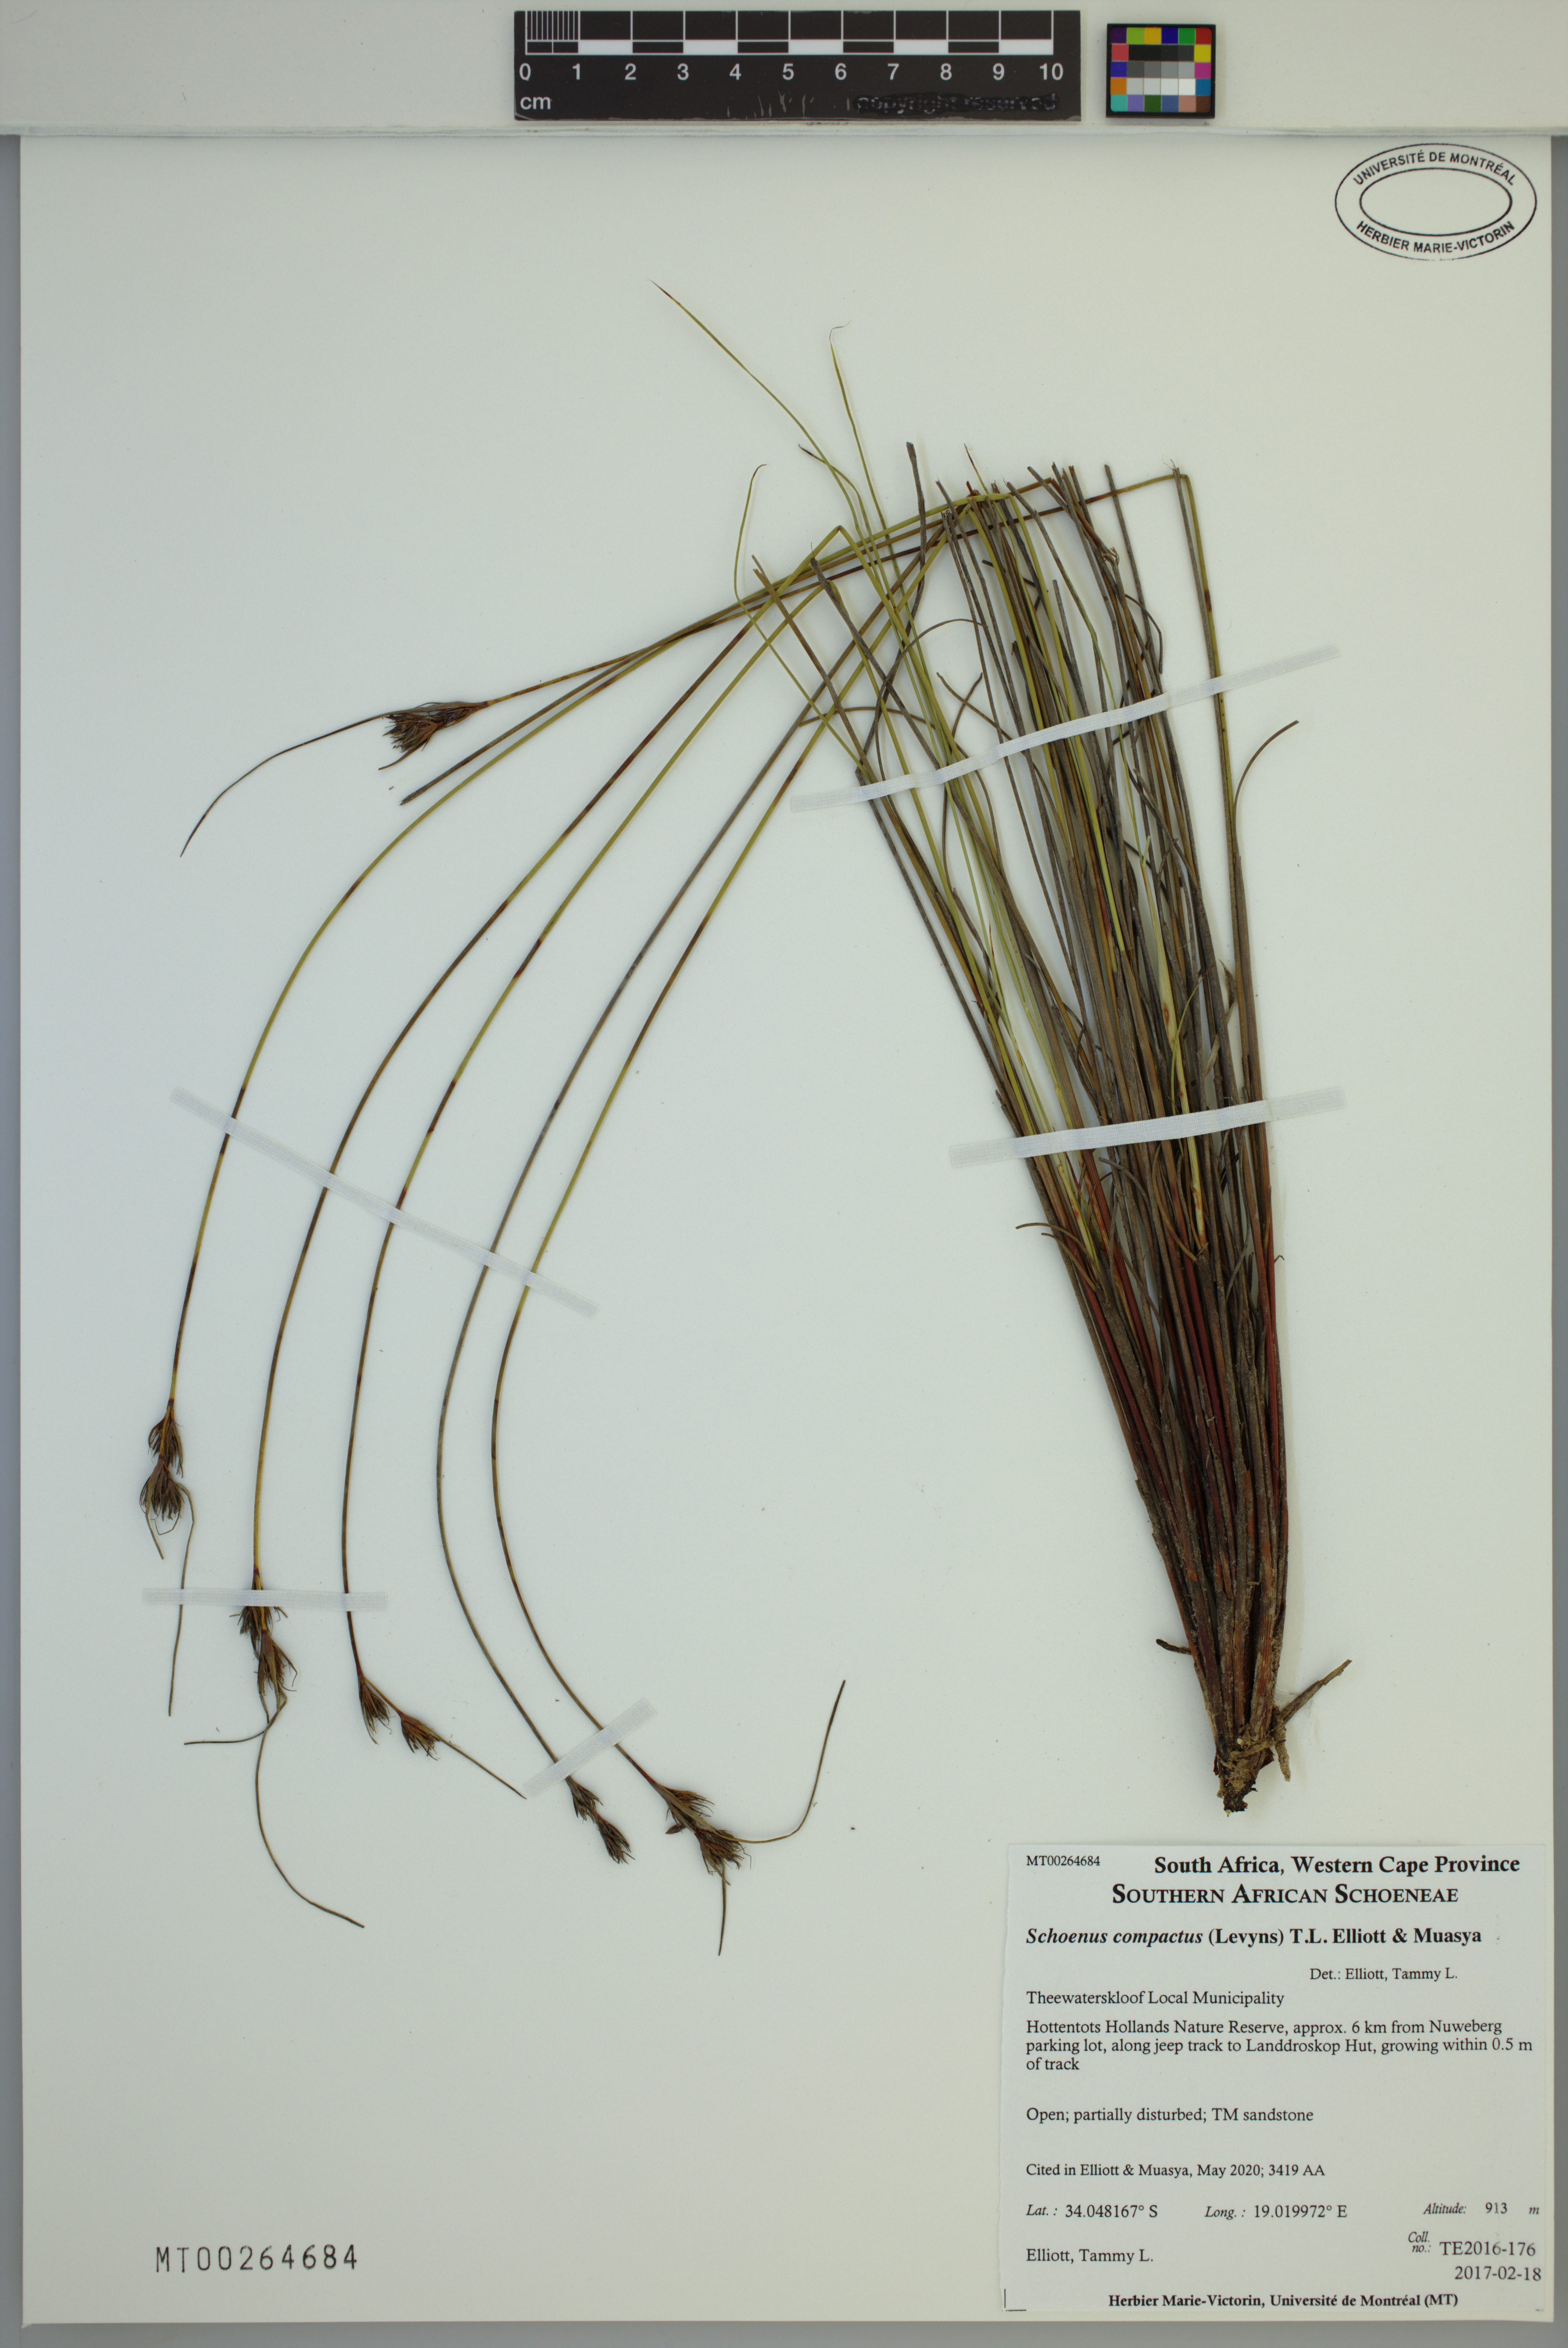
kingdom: Plantae
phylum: Tracheophyta
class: Liliopsida
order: Poales
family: Cyperaceae
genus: Schoenus
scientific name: Schoenus compactus
